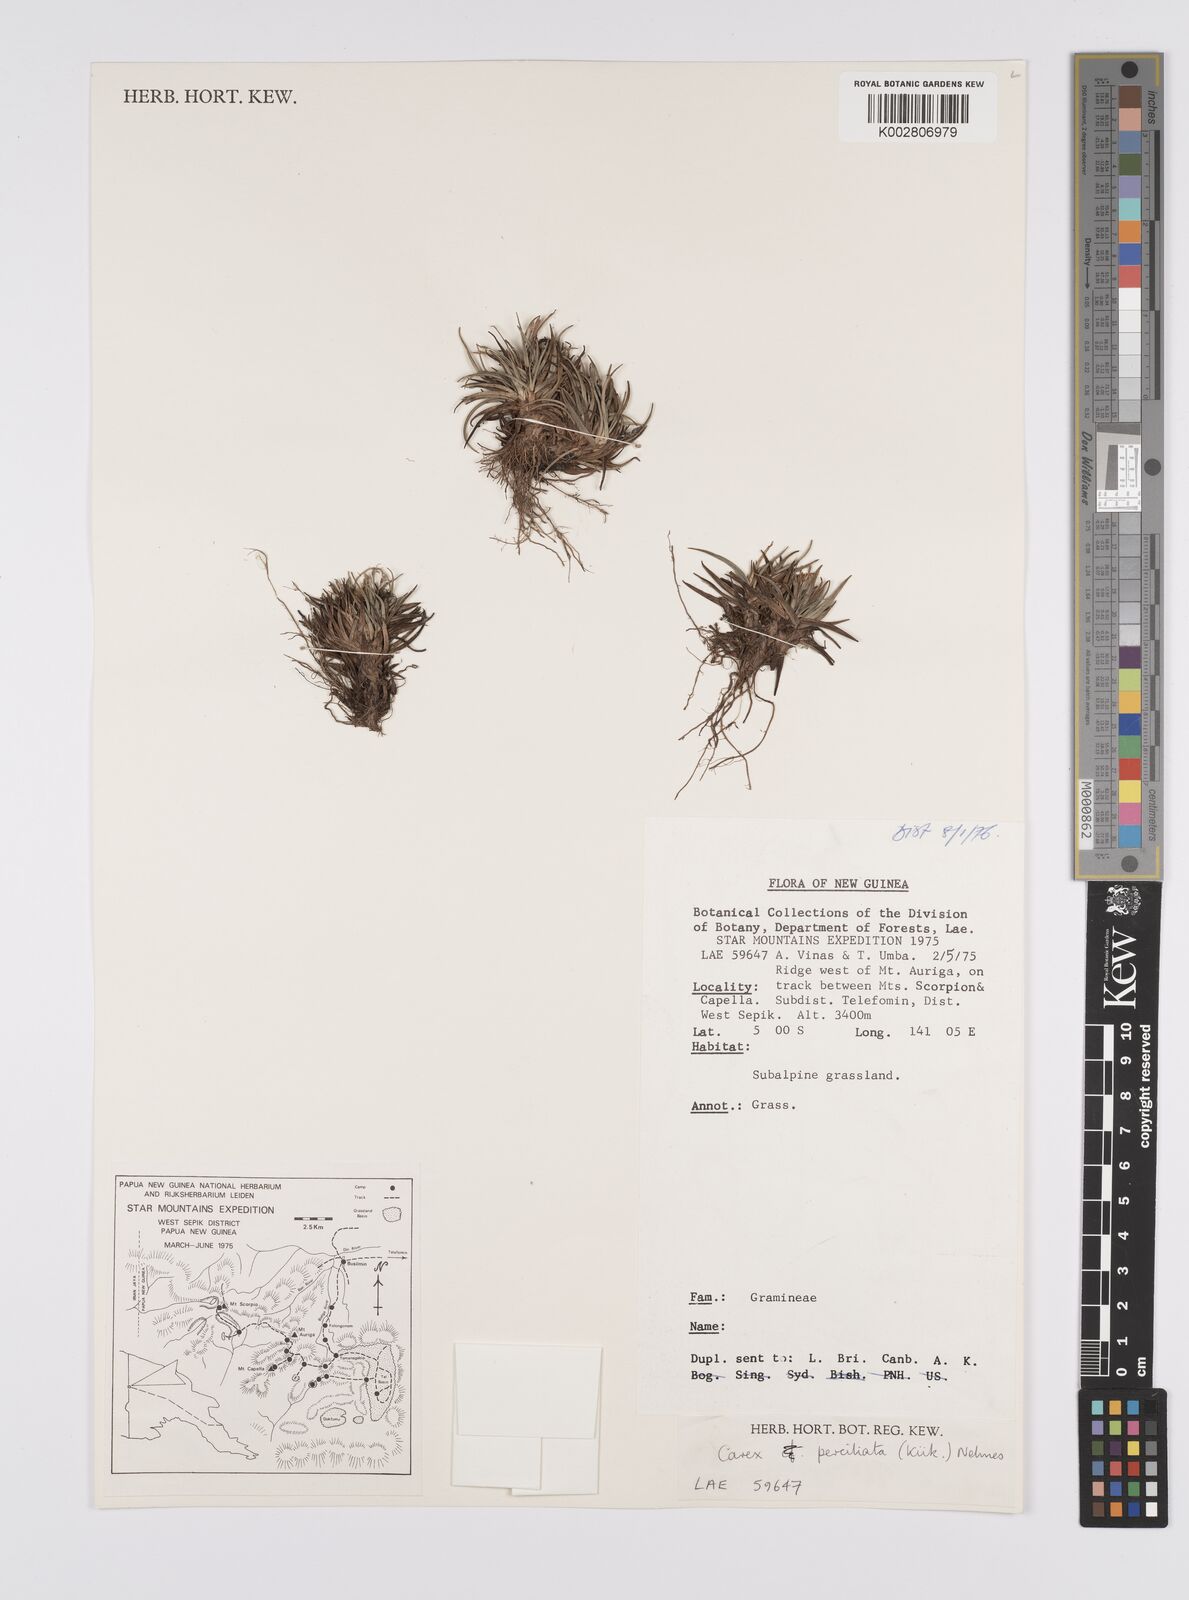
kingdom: Plantae
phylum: Tracheophyta
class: Liliopsida
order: Poales
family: Cyperaceae
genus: Carex
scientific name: Carex breviculmis
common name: Asian shortstem sedge
